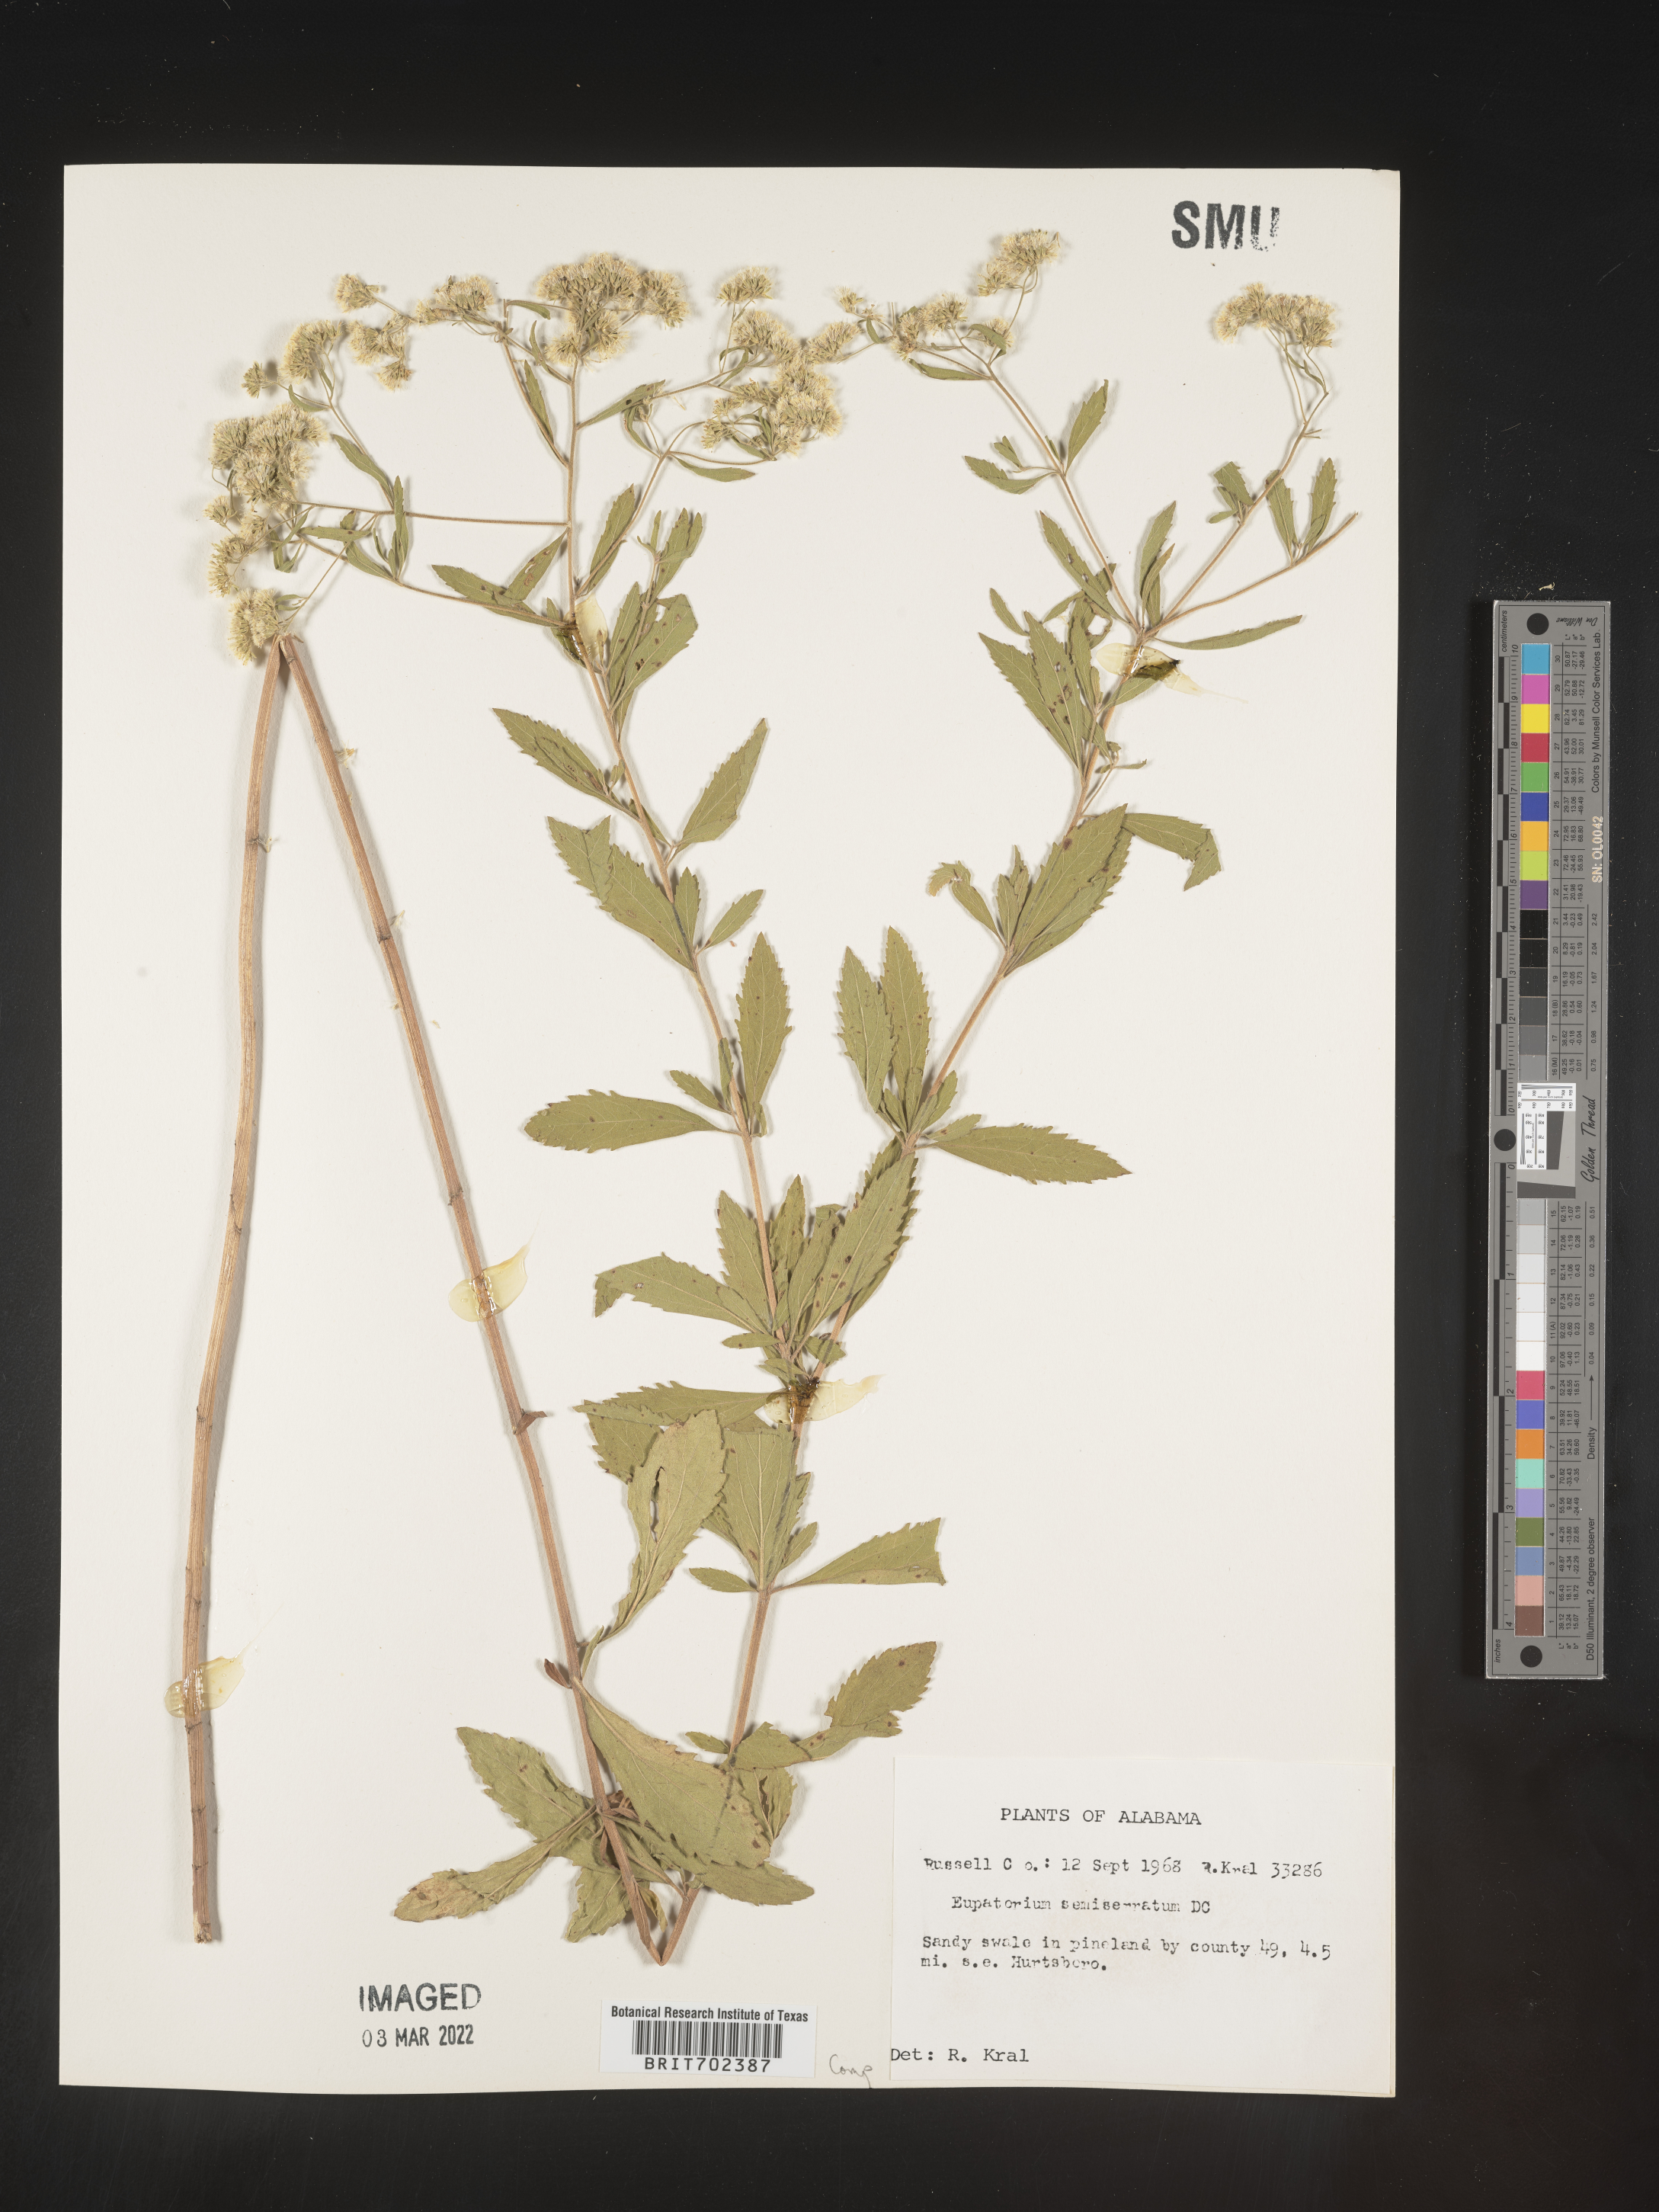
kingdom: Plantae
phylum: Tracheophyta
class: Magnoliopsida
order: Asterales
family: Asteraceae
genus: Eupatorium
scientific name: Eupatorium semiserratum
